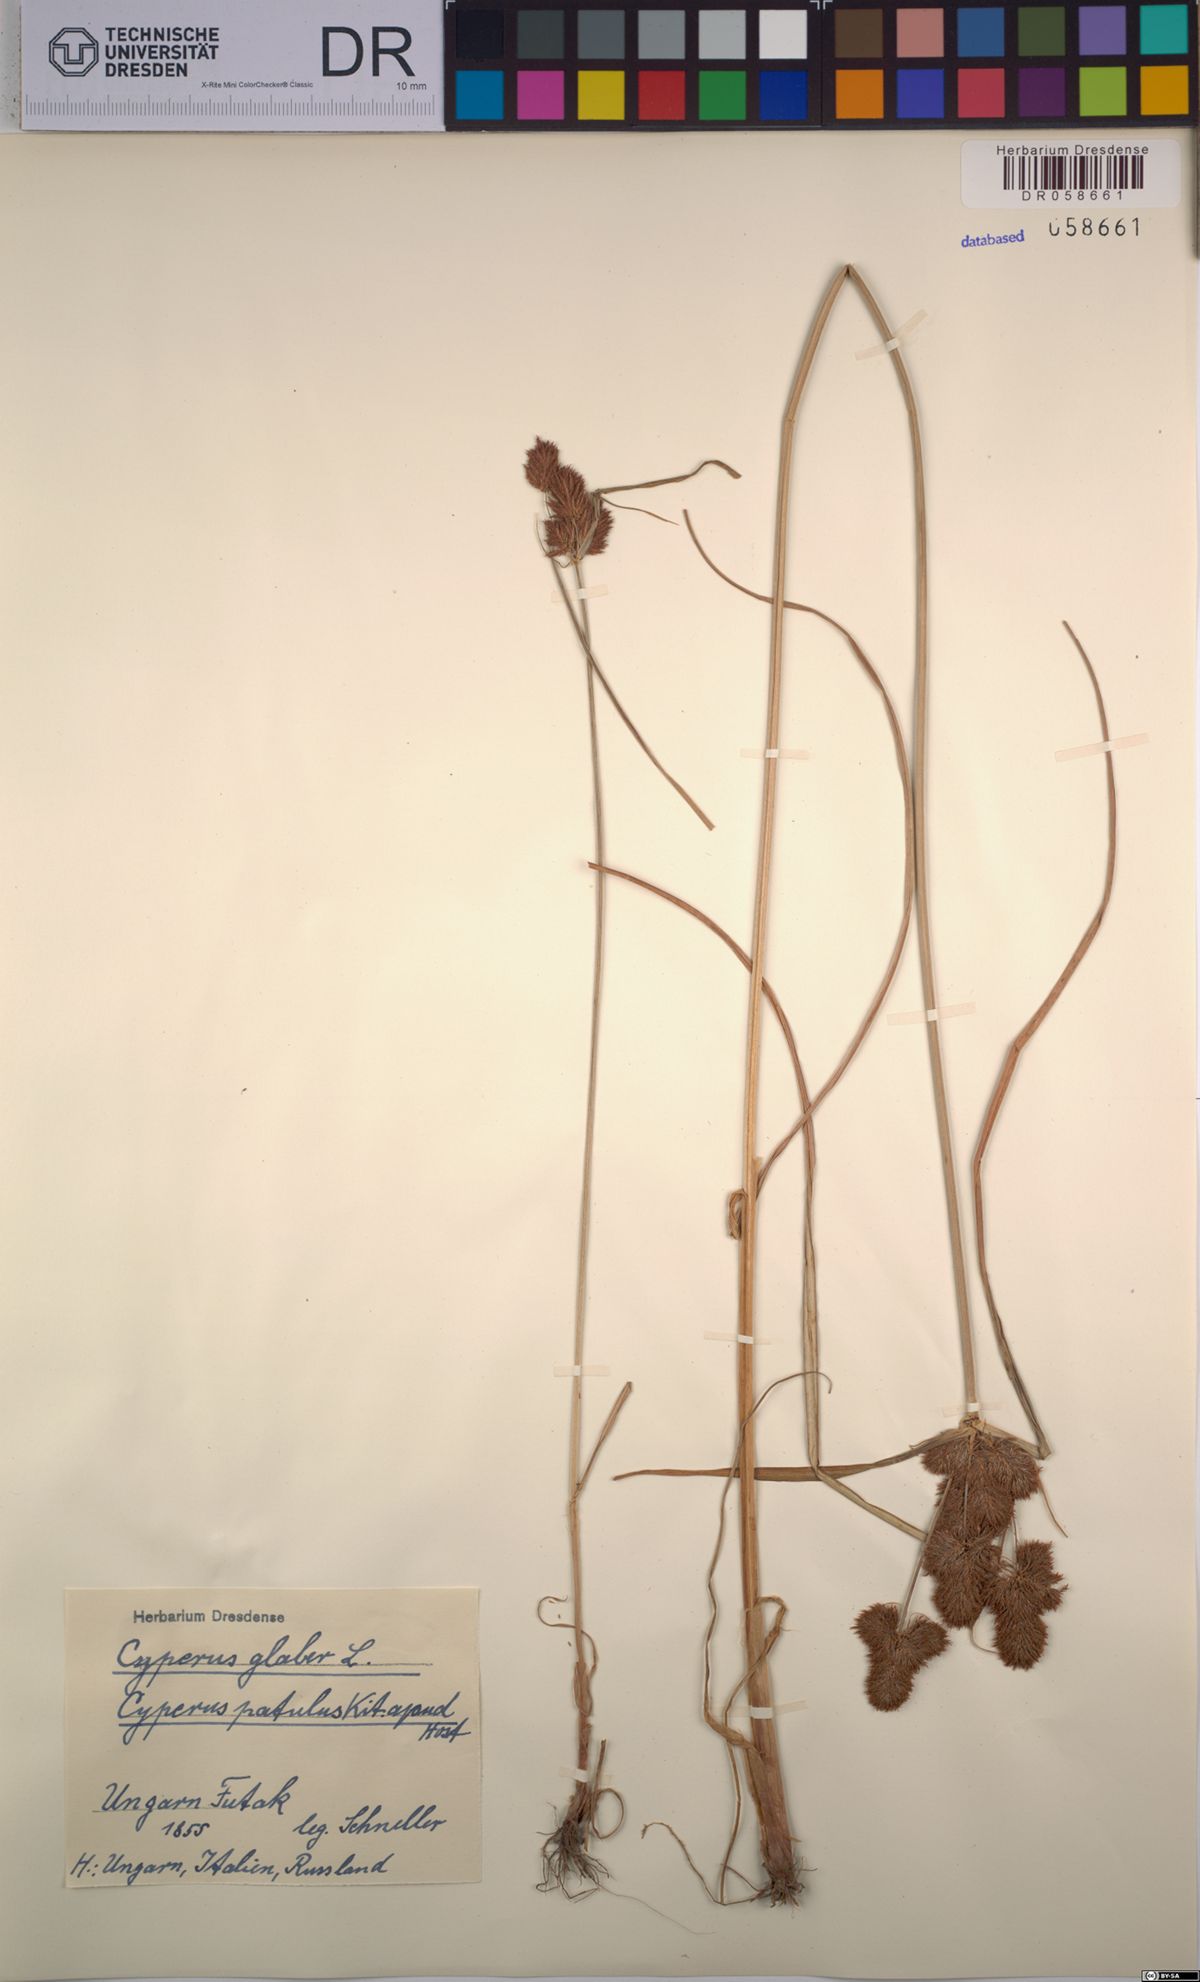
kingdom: Plantae
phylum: Tracheophyta
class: Liliopsida
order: Poales
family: Cyperaceae
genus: Cyperus
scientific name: Cyperus glaber
